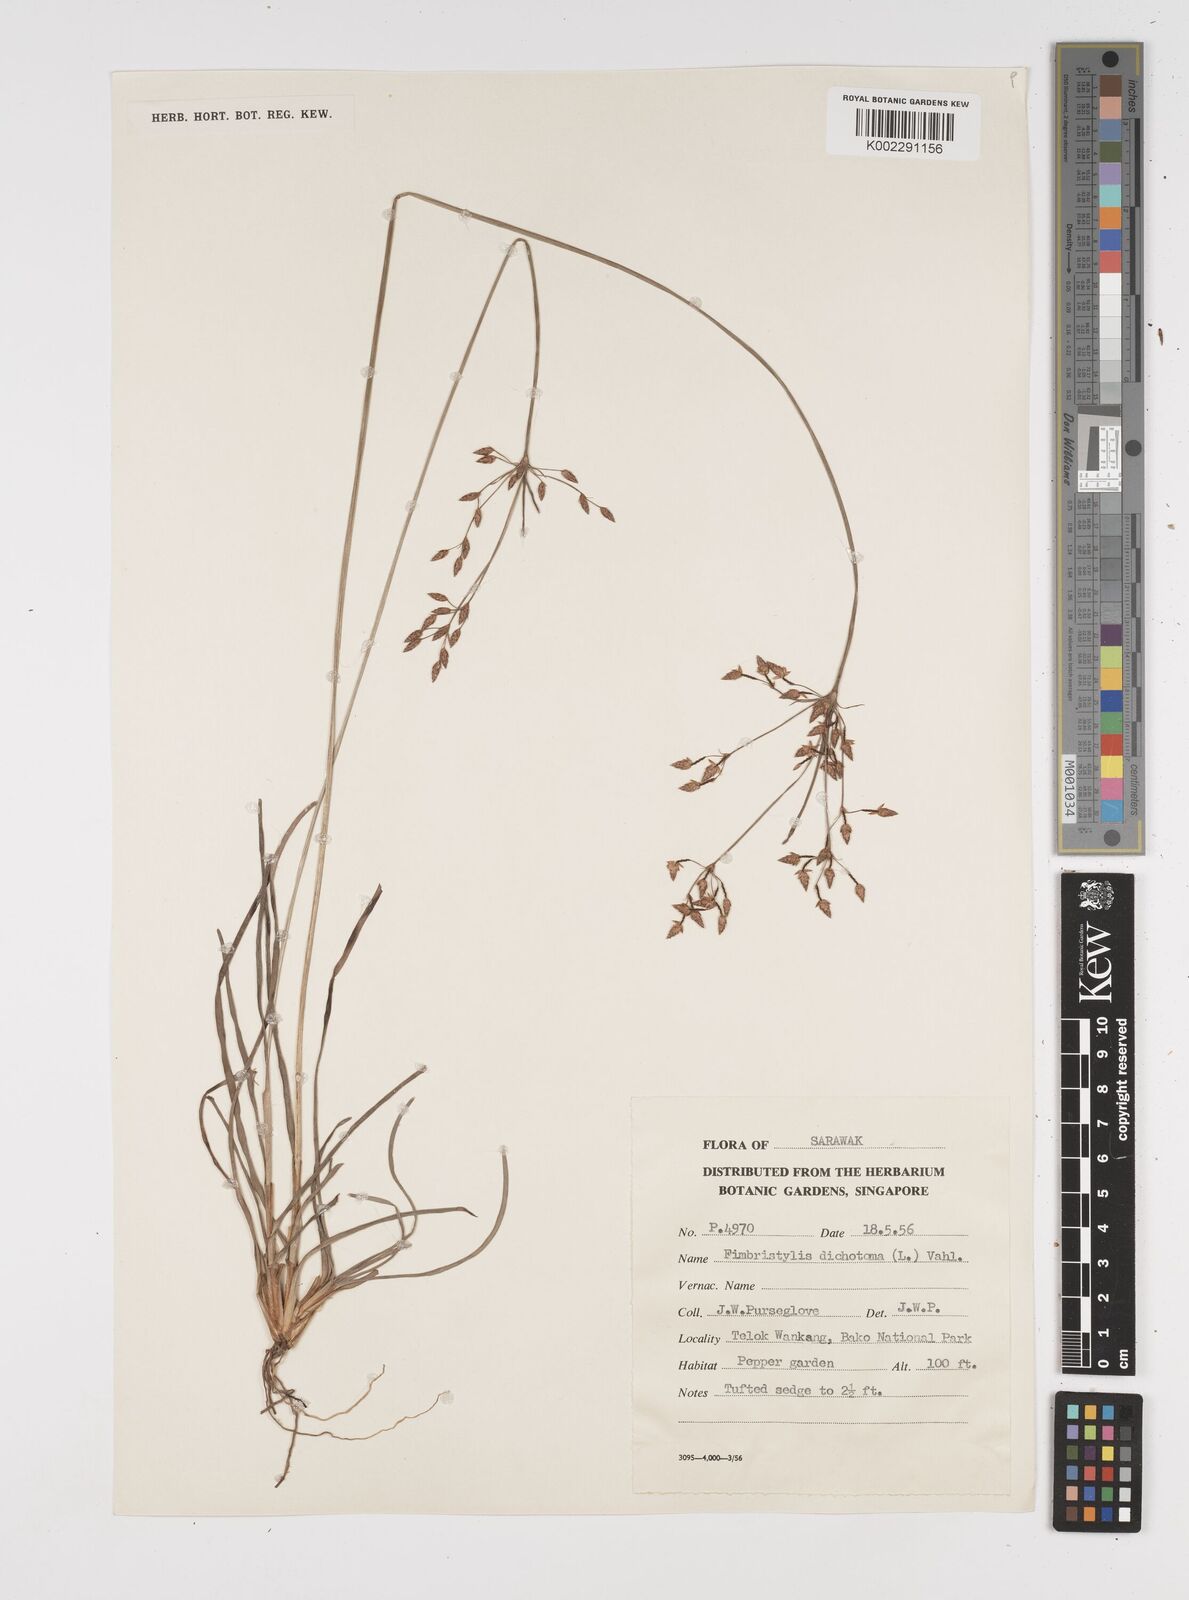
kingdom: Plantae
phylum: Tracheophyta
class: Liliopsida
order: Poales
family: Cyperaceae
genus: Fimbristylis
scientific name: Fimbristylis dichotoma
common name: Forked fimbry
